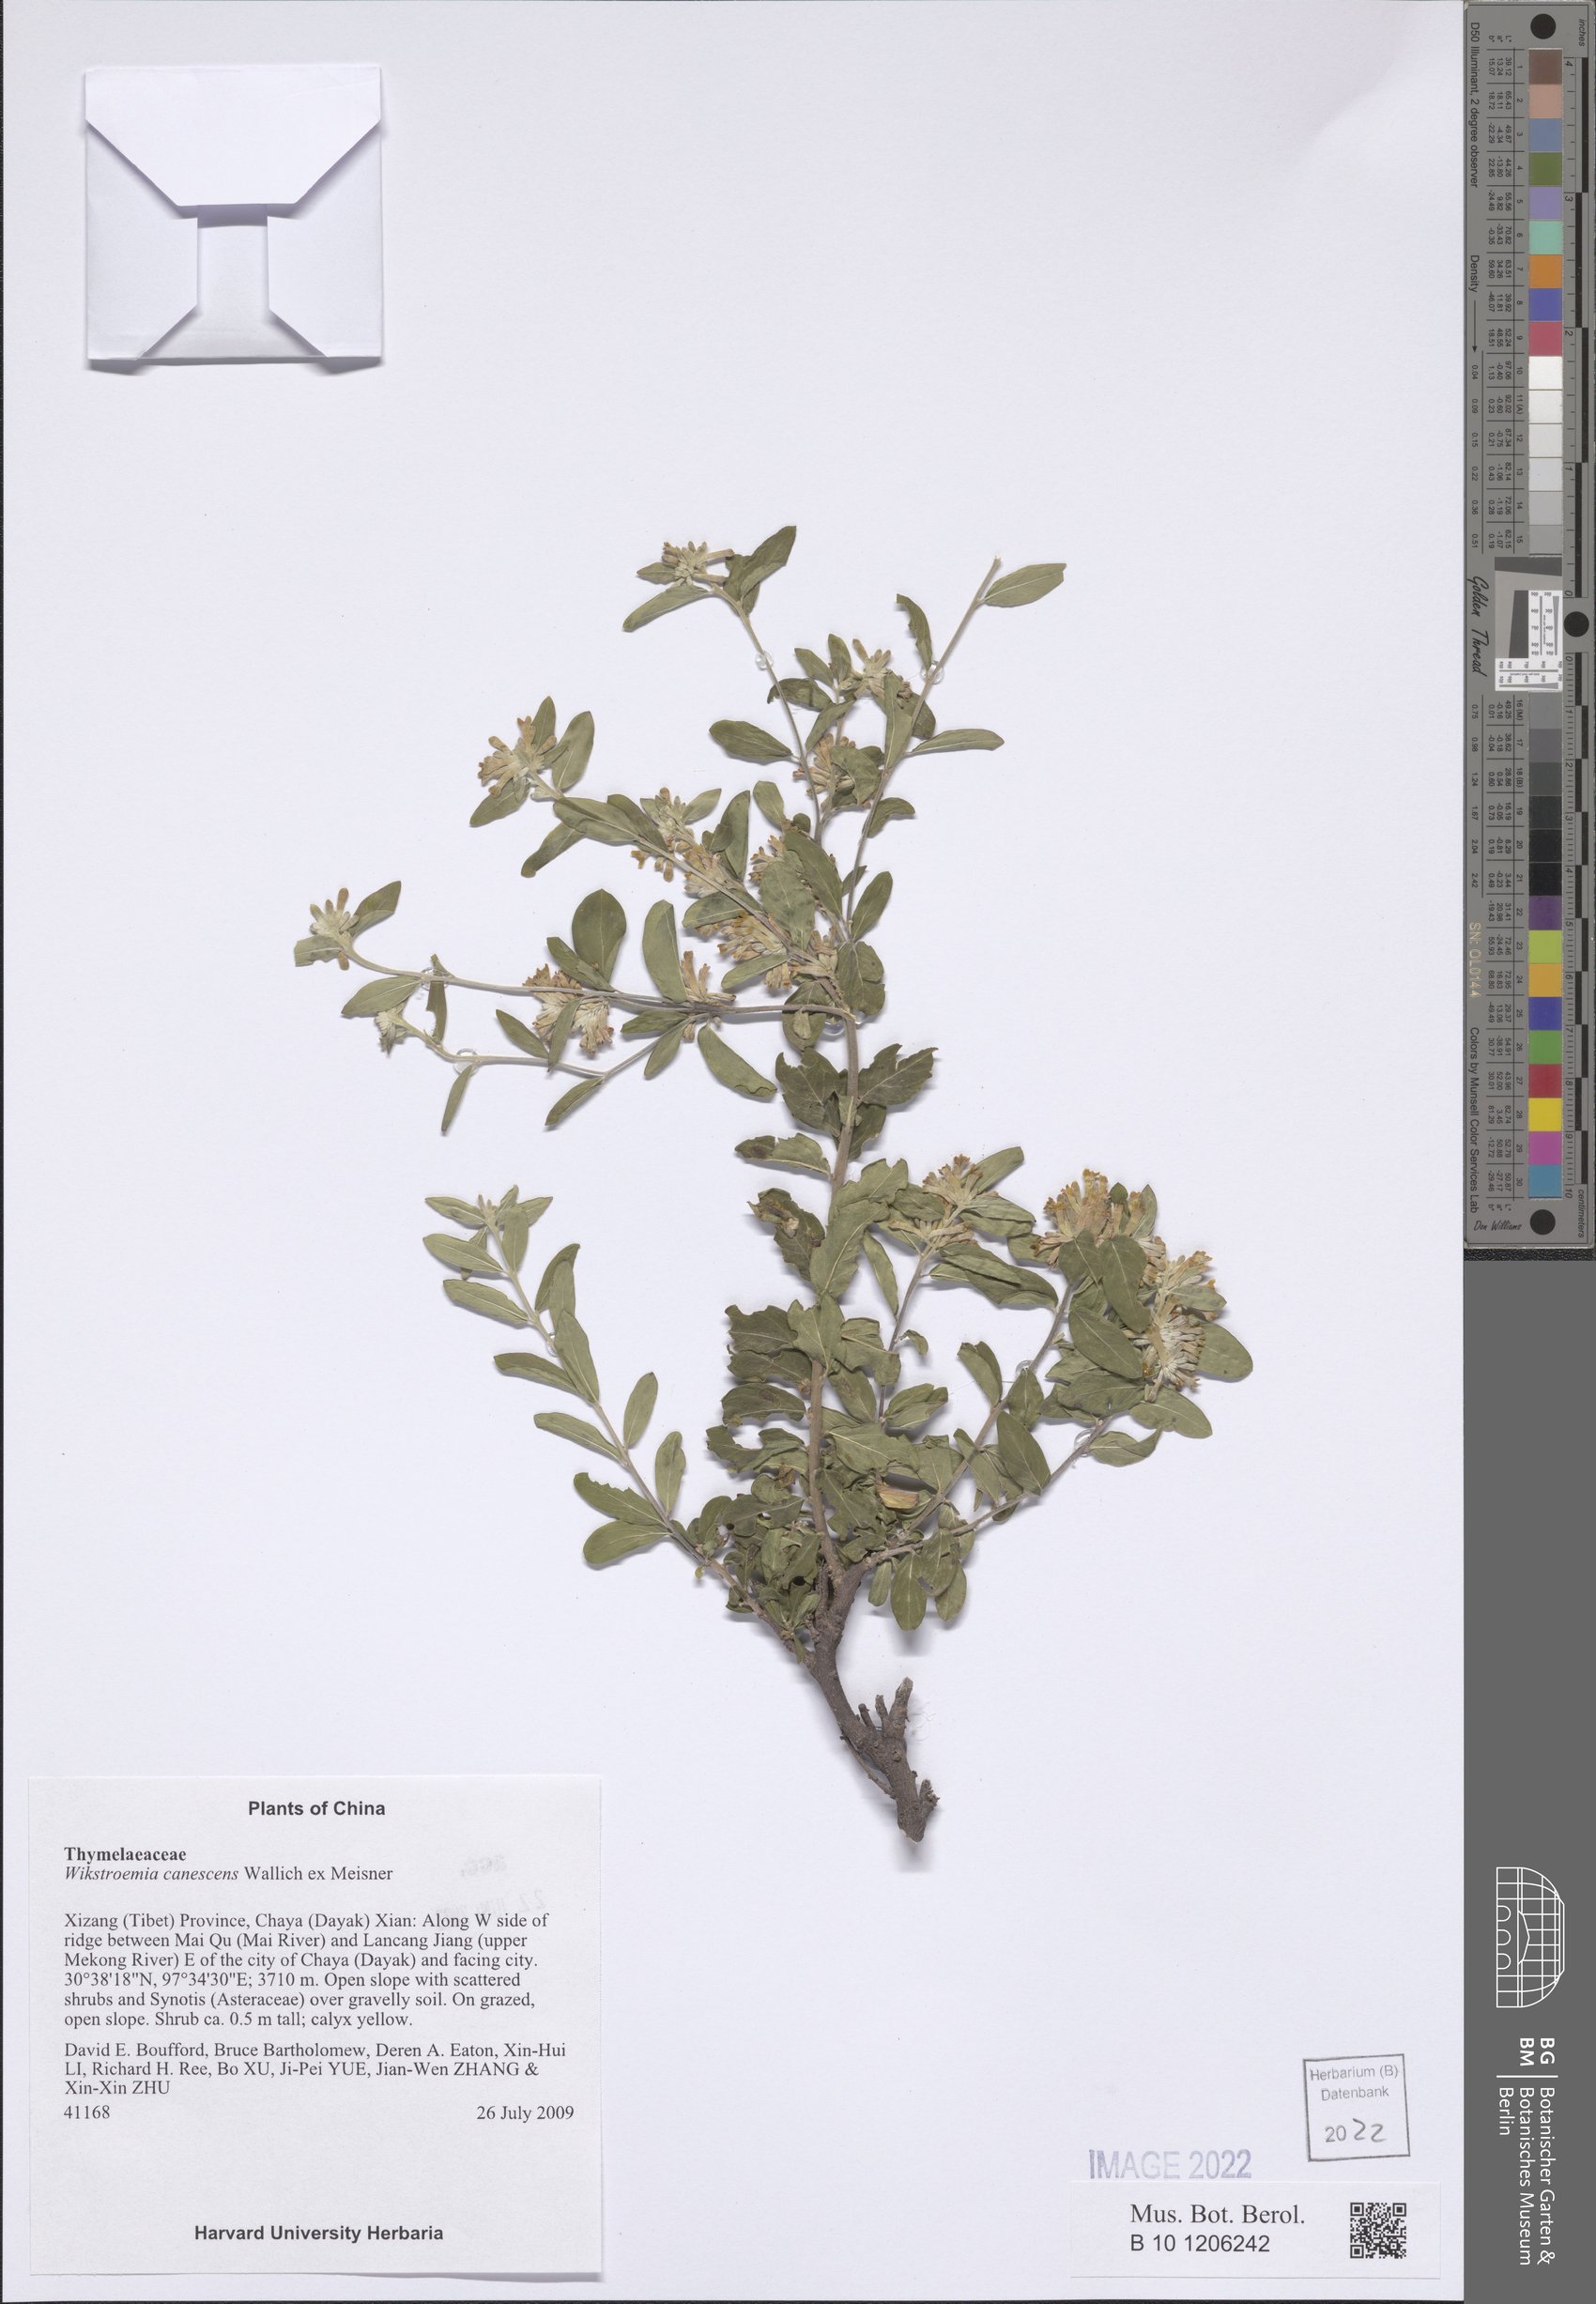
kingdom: Plantae
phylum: Tracheophyta
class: Magnoliopsida
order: Malvales
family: Thymelaeaceae
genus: Wikstroemia
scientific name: Wikstroemia canescens
